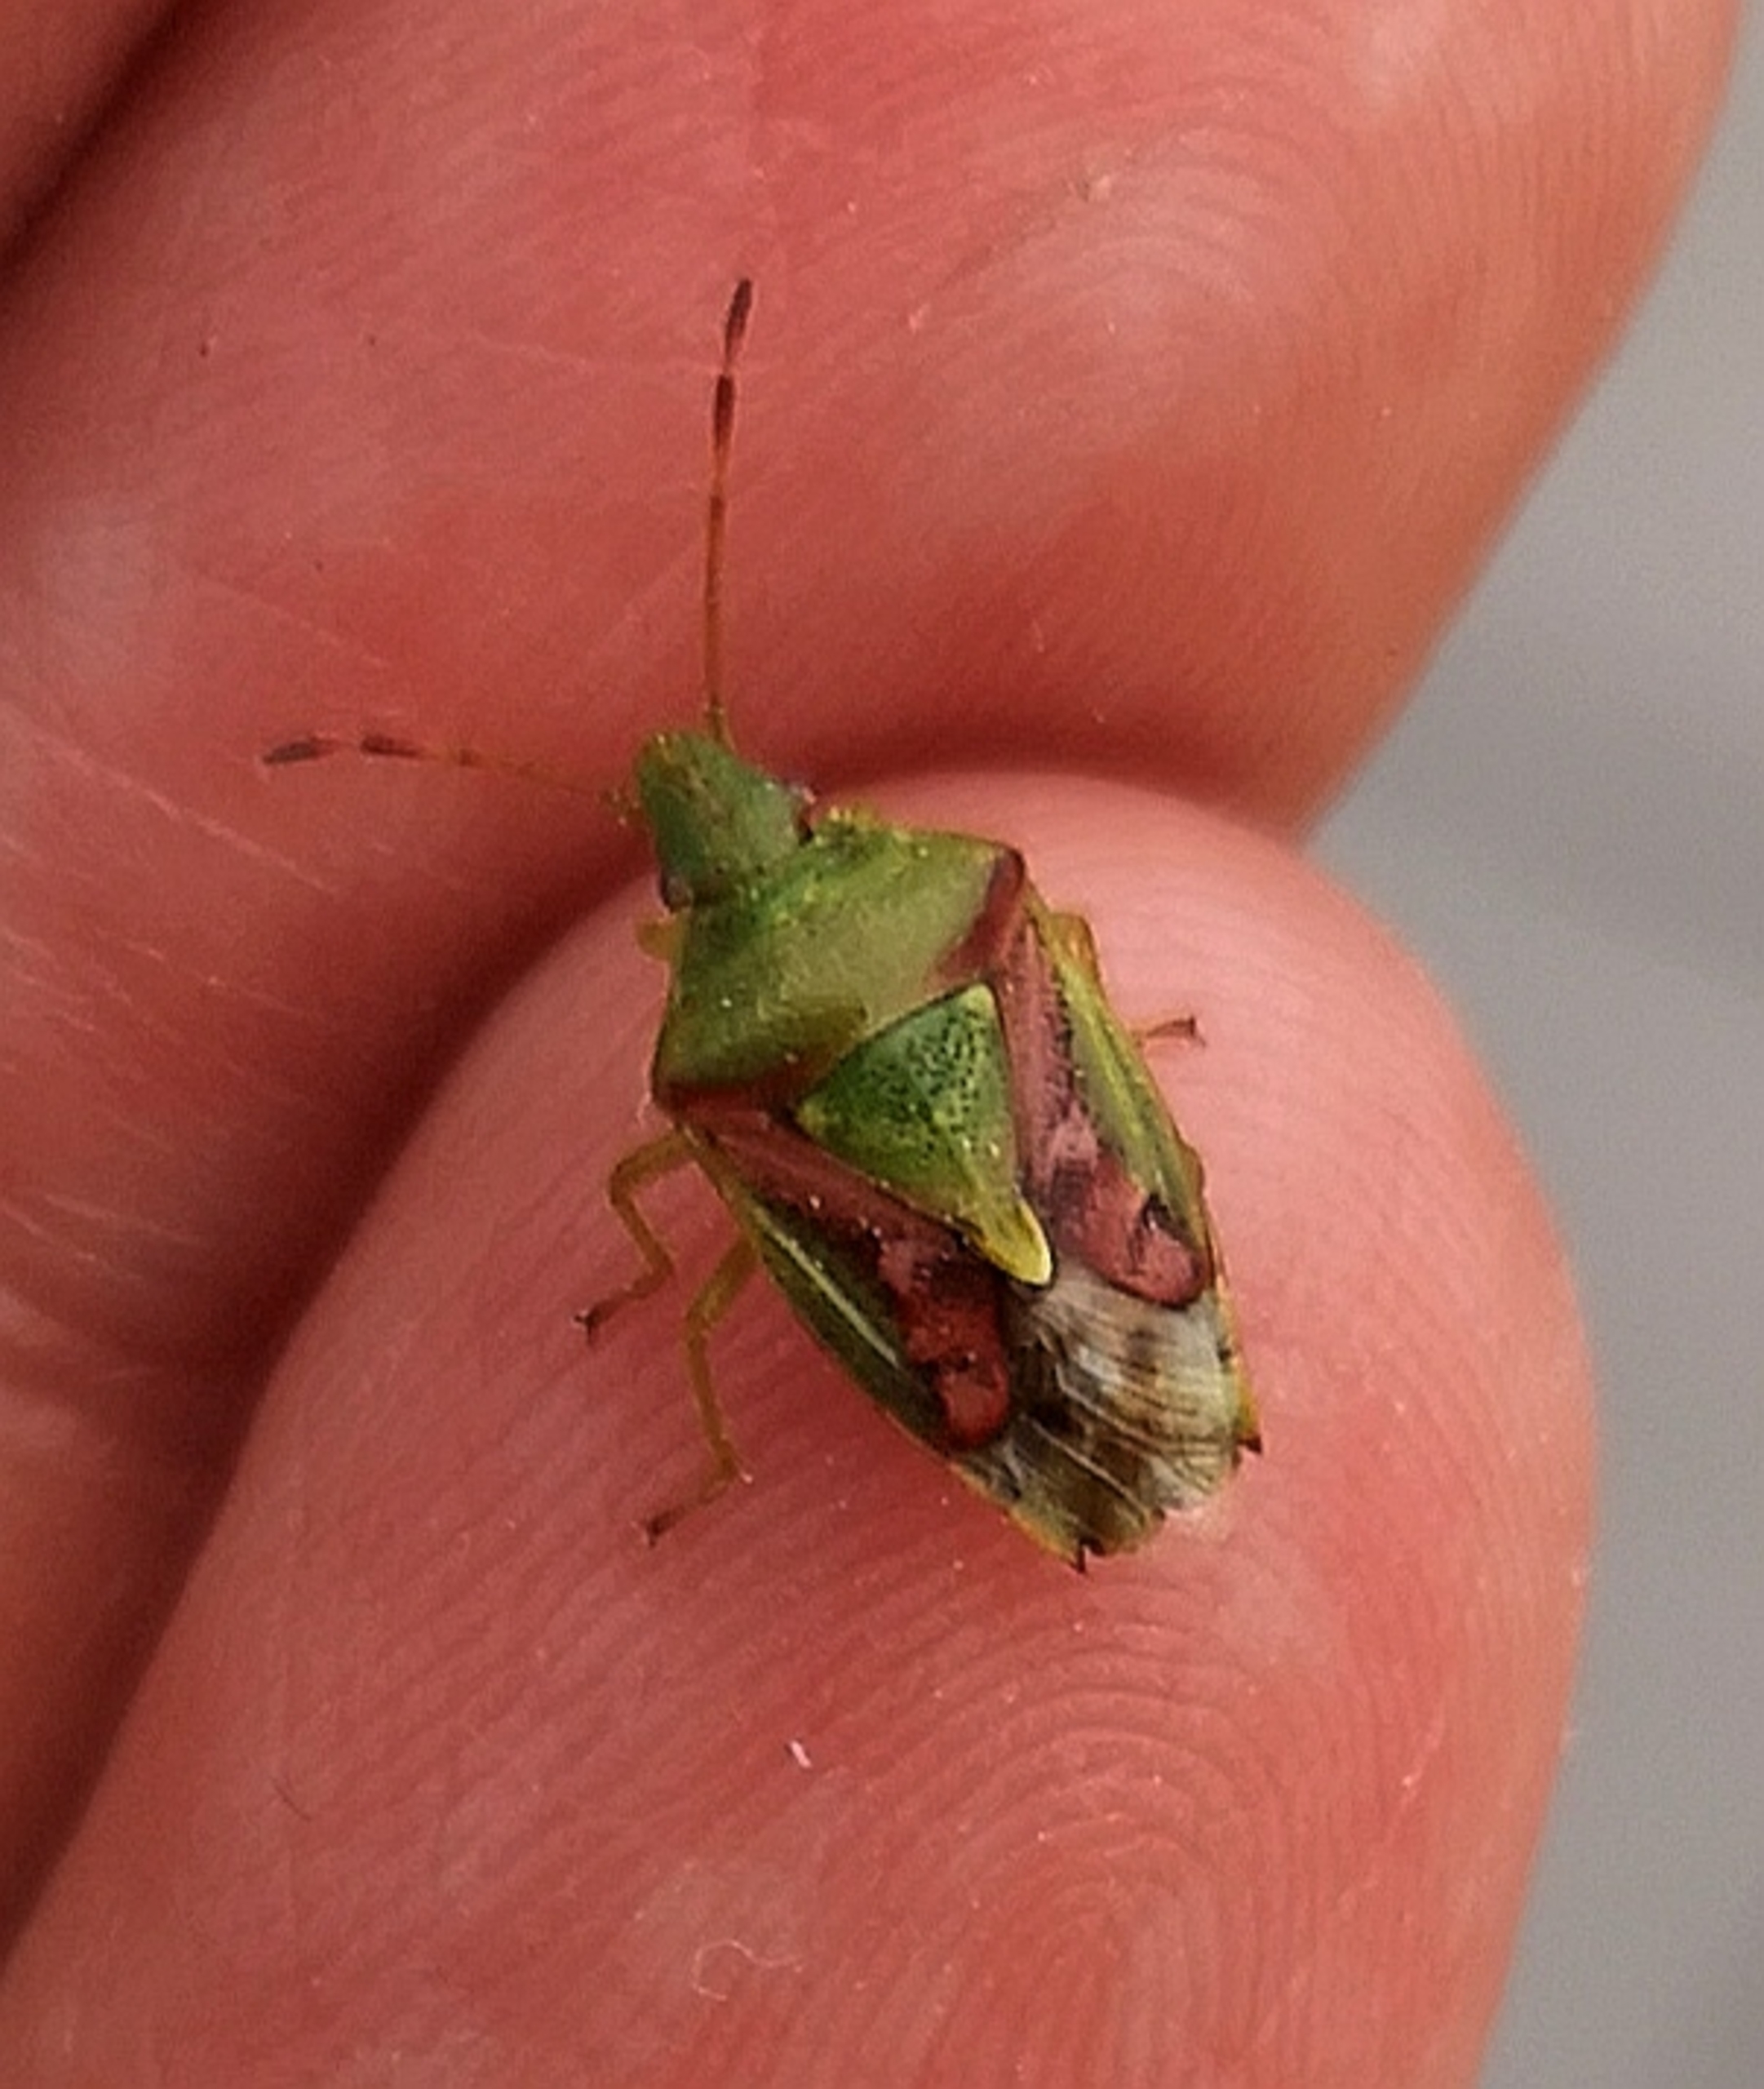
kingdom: Animalia
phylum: Arthropoda
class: Insecta
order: Hemiptera
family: Acanthosomatidae
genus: Cyphostethus
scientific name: Cyphostethus tristriatus
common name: Slank enebærtæge
